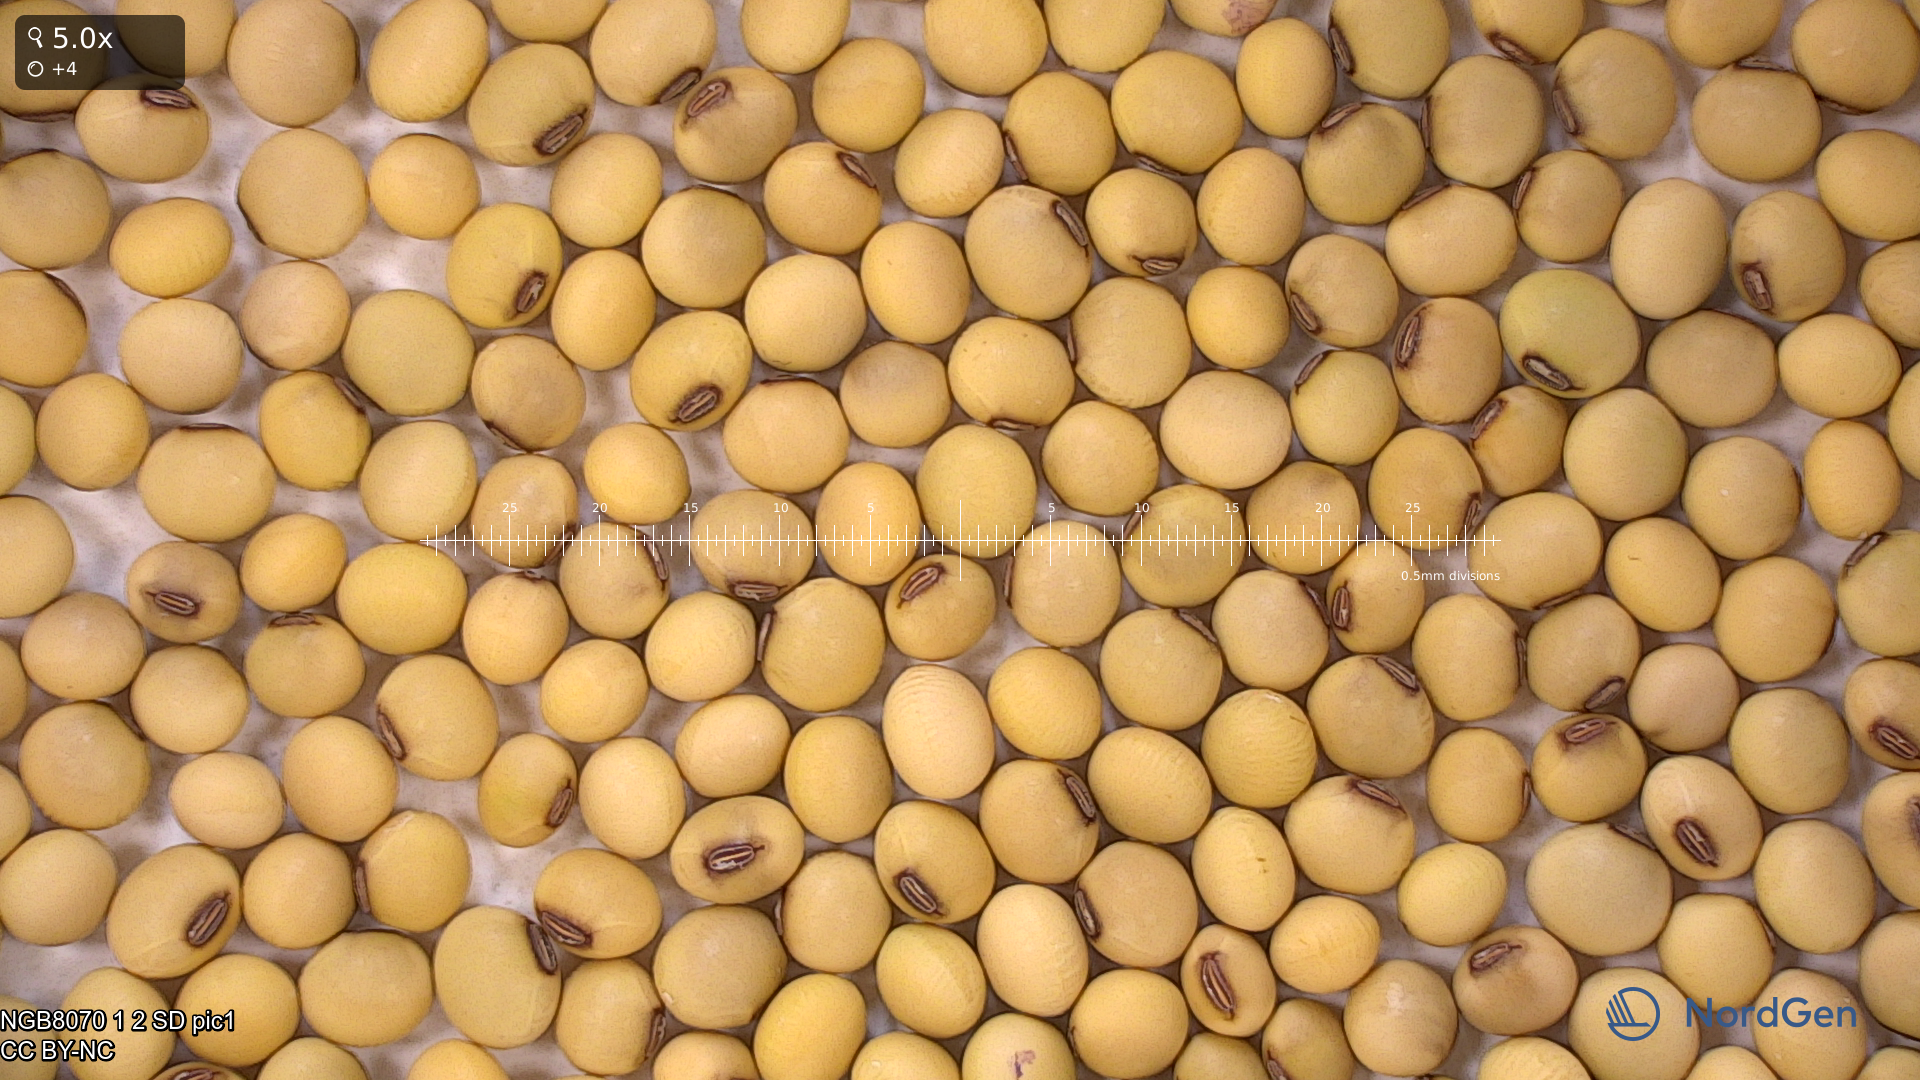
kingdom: Plantae
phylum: Tracheophyta
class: Magnoliopsida
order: Fabales
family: Fabaceae
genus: Glycine
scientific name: Glycine max
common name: Soya-bean
